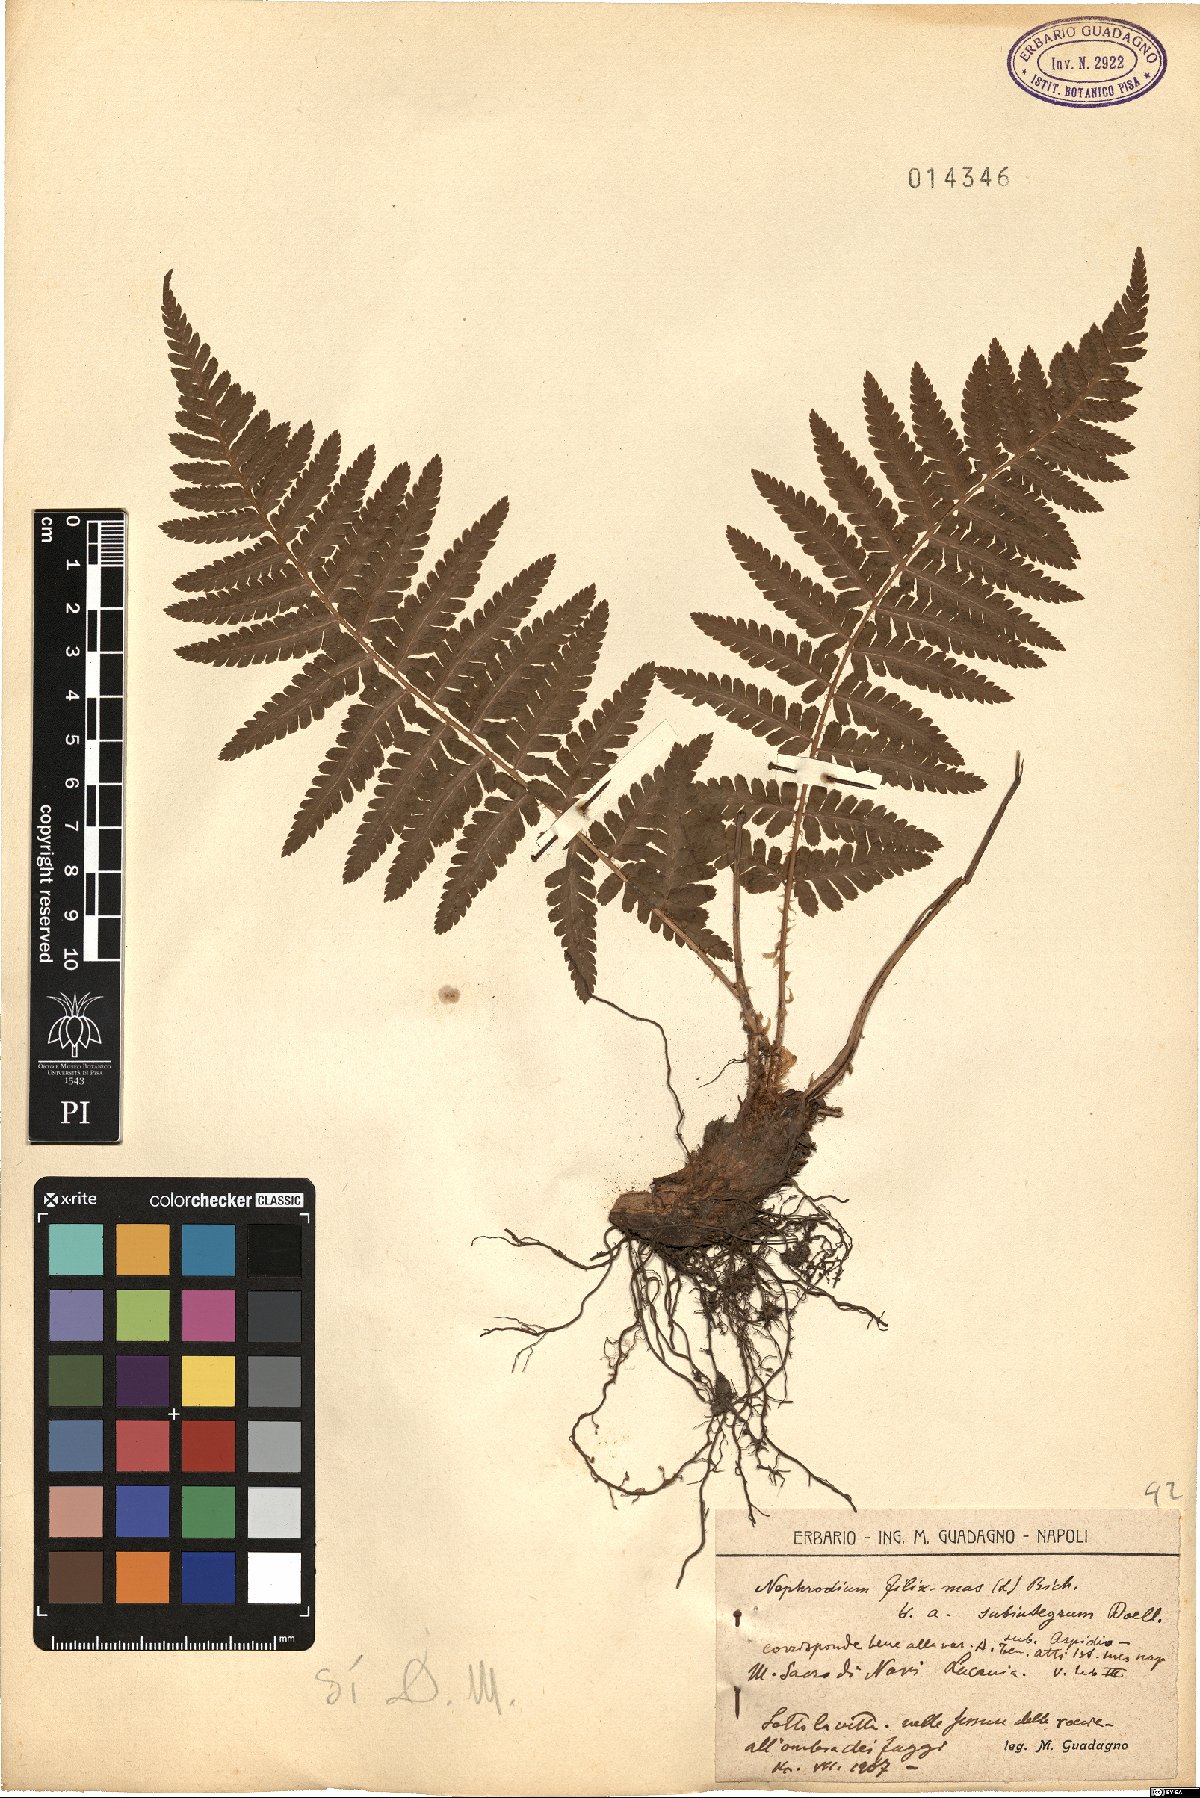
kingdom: Plantae
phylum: Tracheophyta
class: Polypodiopsida
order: Polypodiales
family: Dryopteridaceae
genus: Dryopteris
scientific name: Dryopteris filix-mas
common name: Male fern
